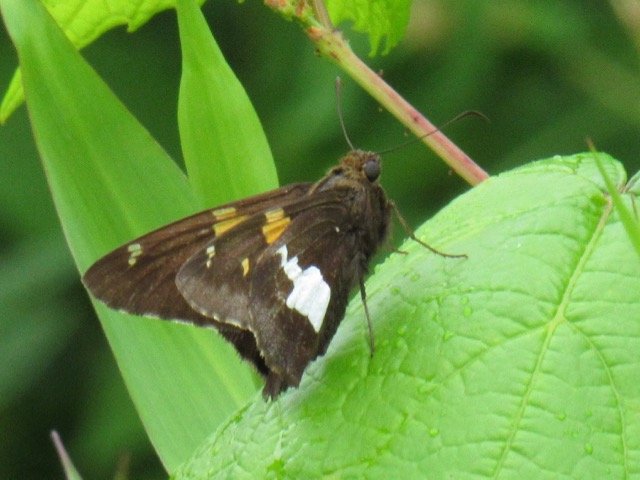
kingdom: Animalia
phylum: Arthropoda
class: Insecta
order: Lepidoptera
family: Hesperiidae
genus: Epargyreus
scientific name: Epargyreus clarus
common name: Silver-spotted Skipper
